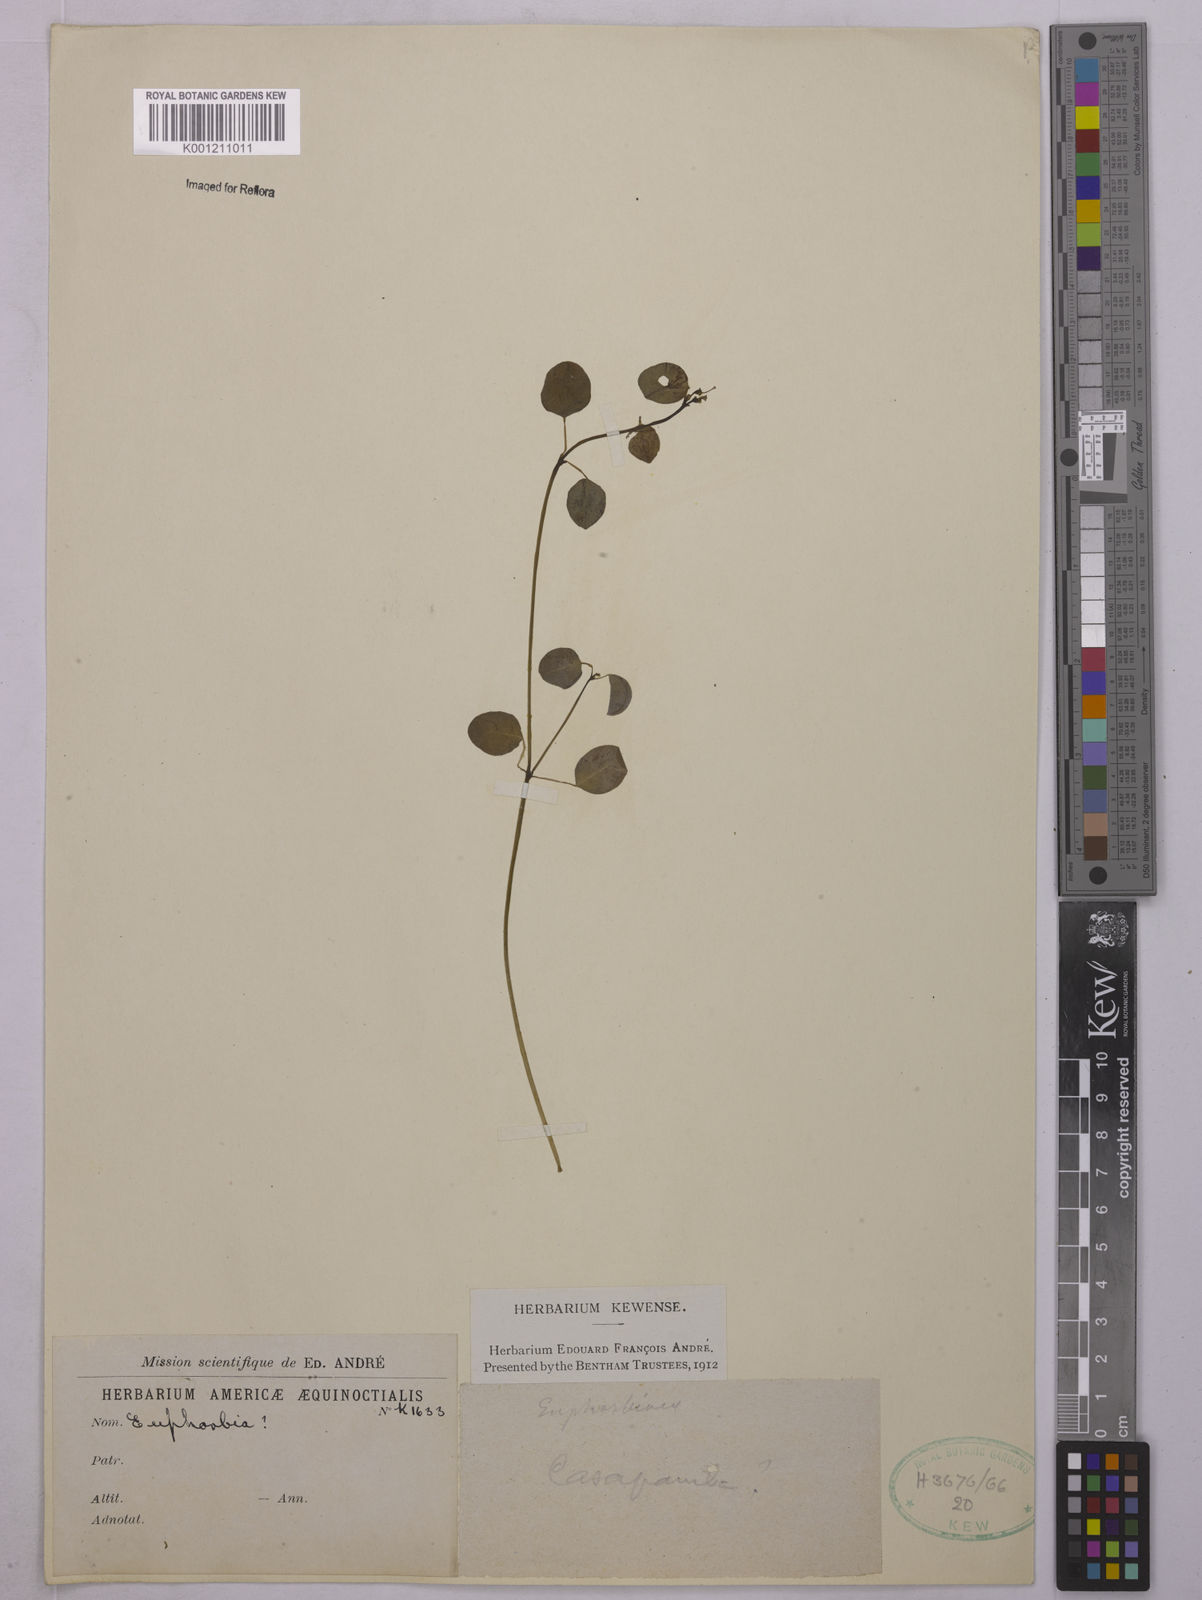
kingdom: Plantae
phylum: Tracheophyta
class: Magnoliopsida
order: Malpighiales
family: Euphorbiaceae
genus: Euphorbia
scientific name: Euphorbia
